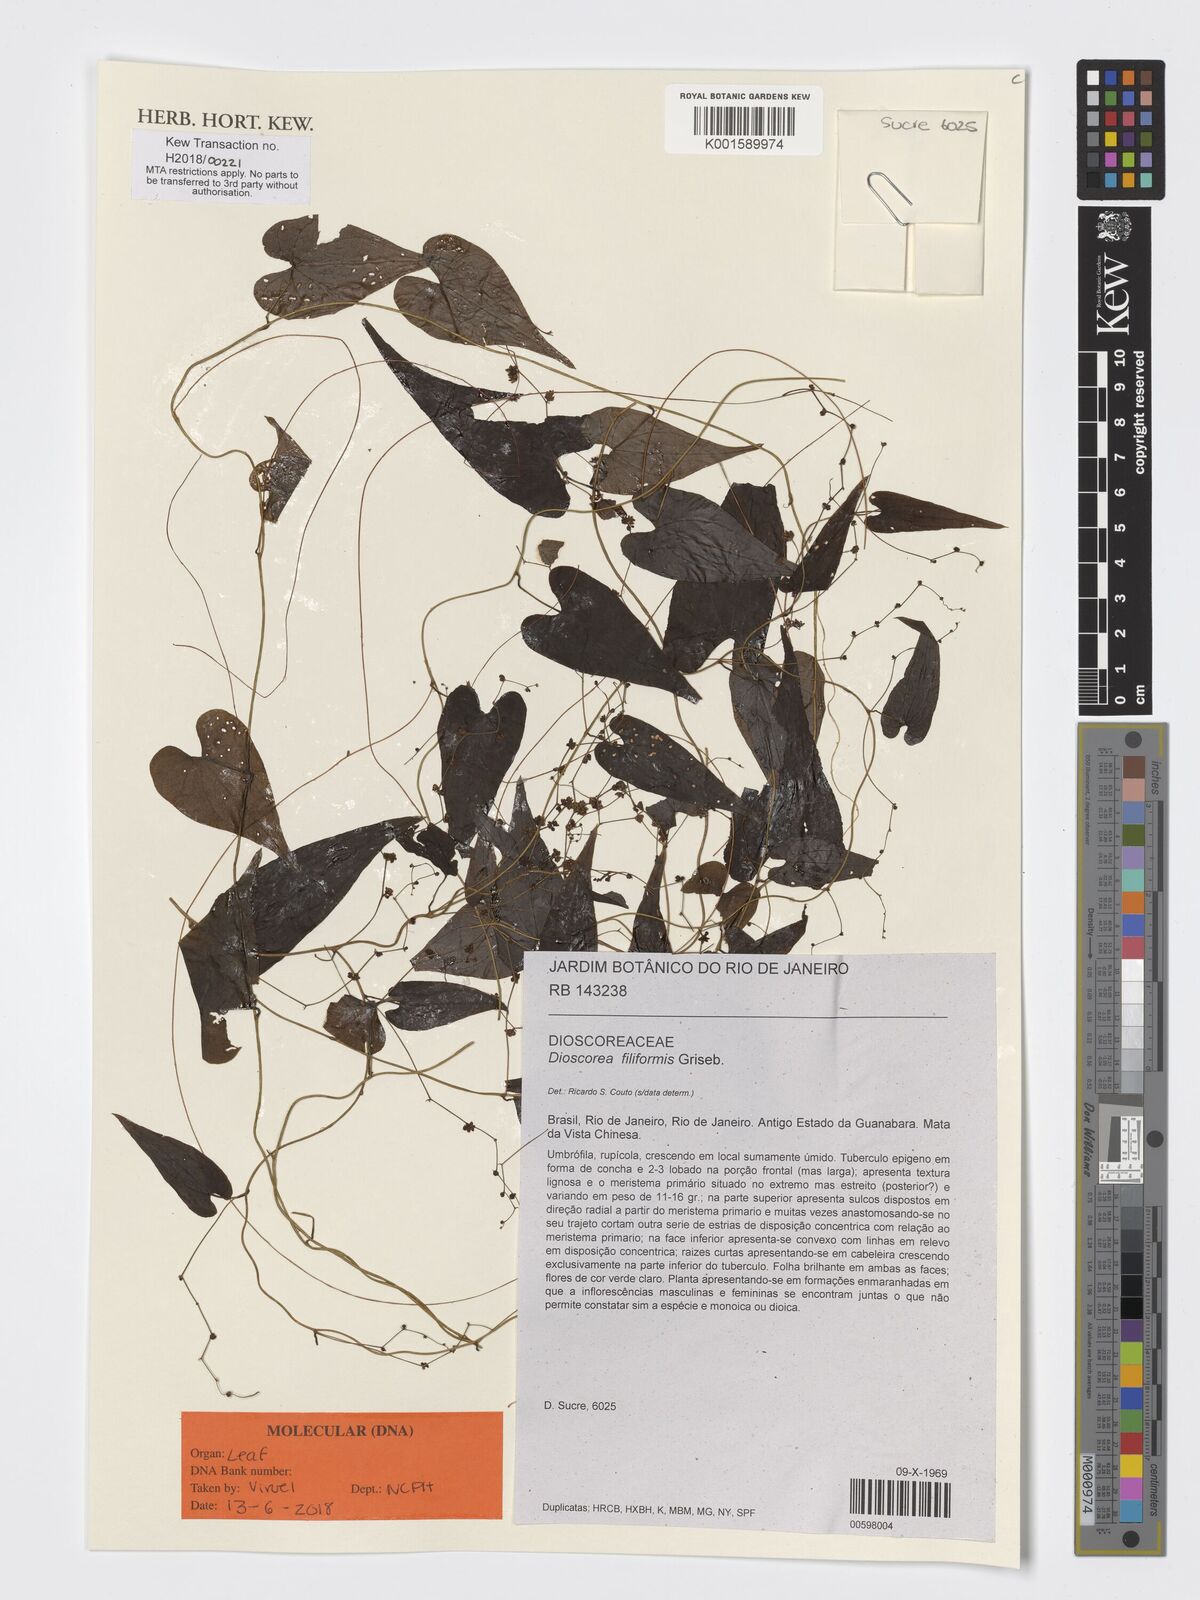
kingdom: Plantae
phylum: Tracheophyta
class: Liliopsida
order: Dioscoreales
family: Dioscoreaceae
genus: Dioscorea
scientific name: Dioscorea grisebachii
